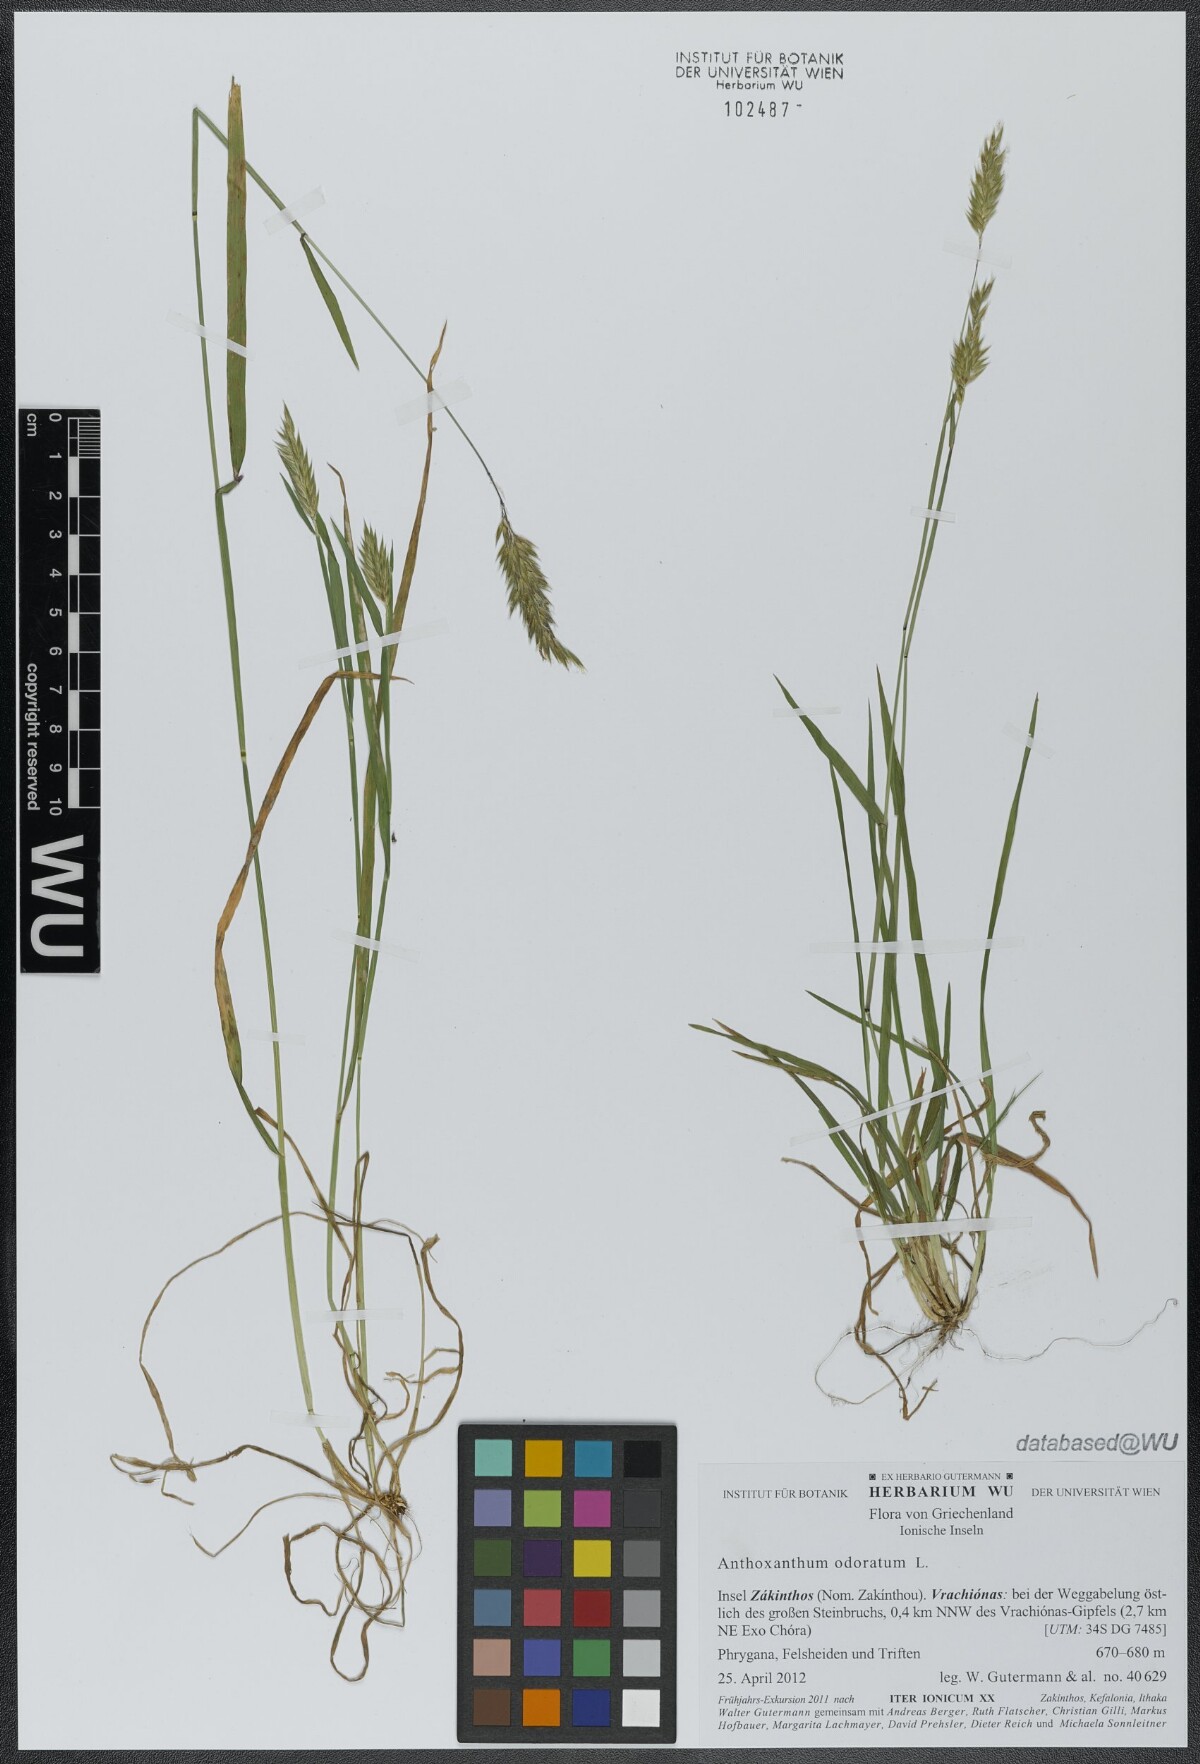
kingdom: Plantae
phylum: Tracheophyta
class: Liliopsida
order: Poales
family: Poaceae
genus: Anthoxanthum
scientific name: Anthoxanthum odoratum
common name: Sweet vernalgrass
